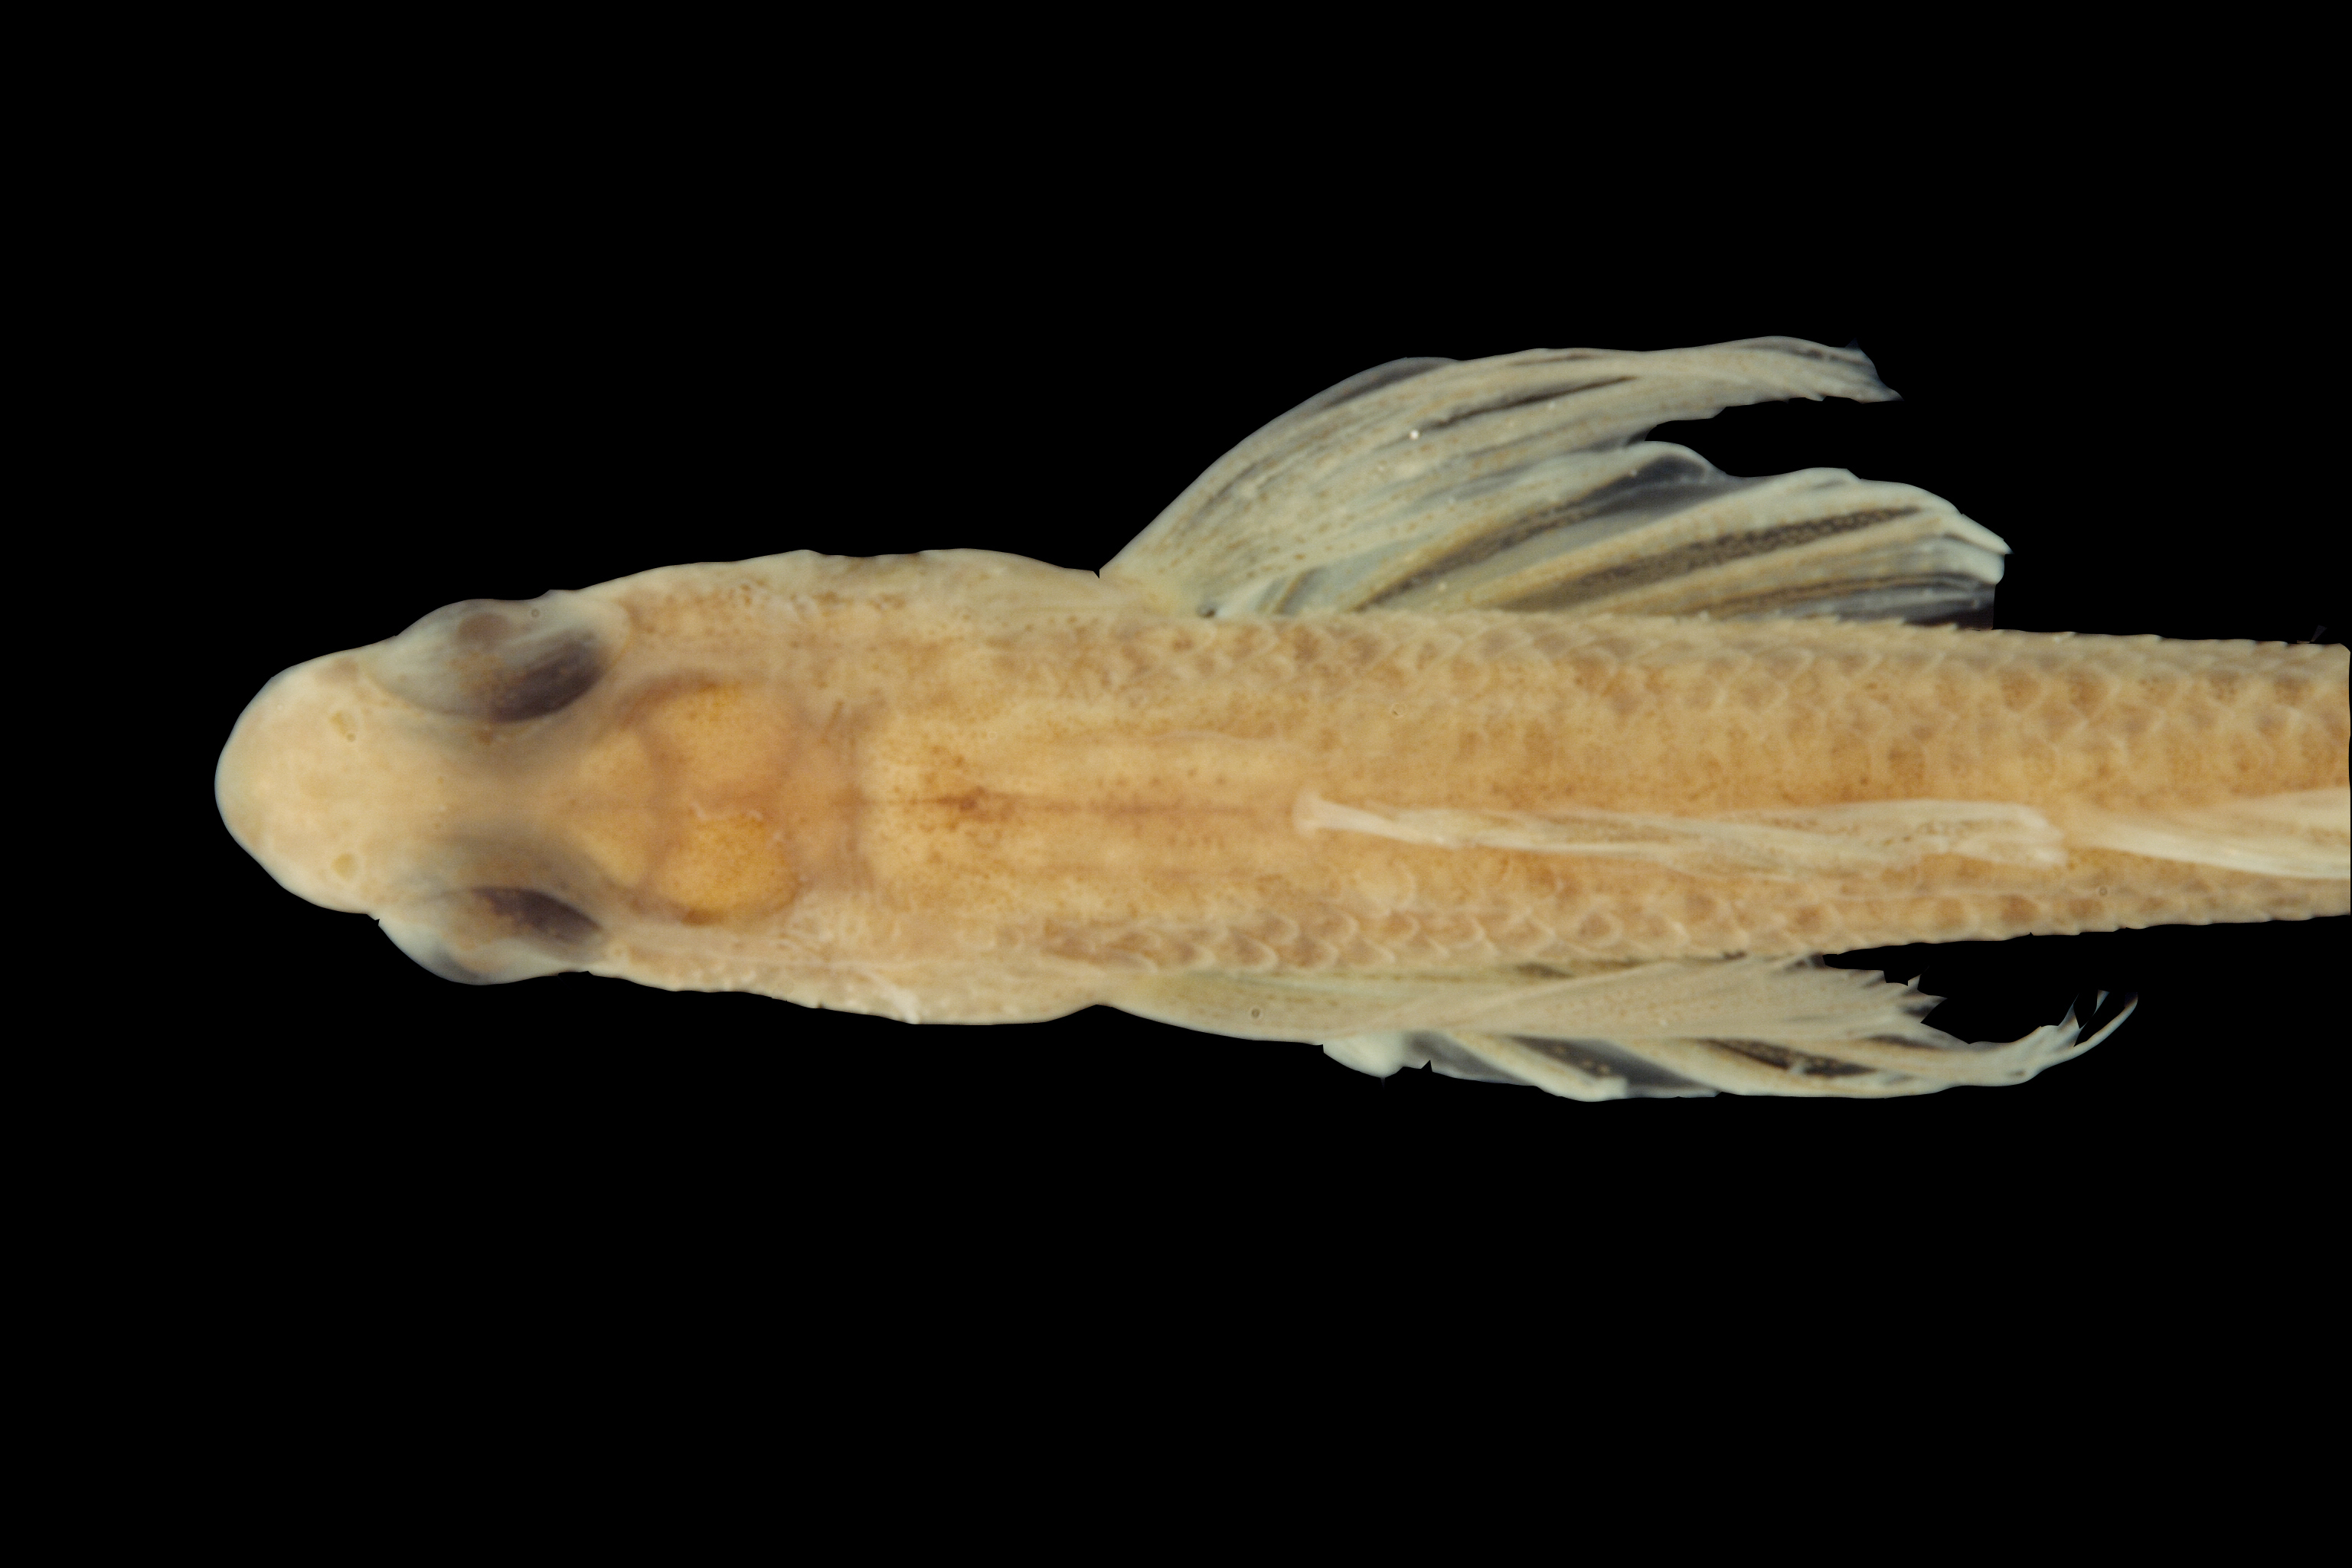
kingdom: Animalia
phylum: Chordata
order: Perciformes
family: Percidae
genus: Etheostoma
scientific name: Etheostoma proeliare
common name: Cypress darter
